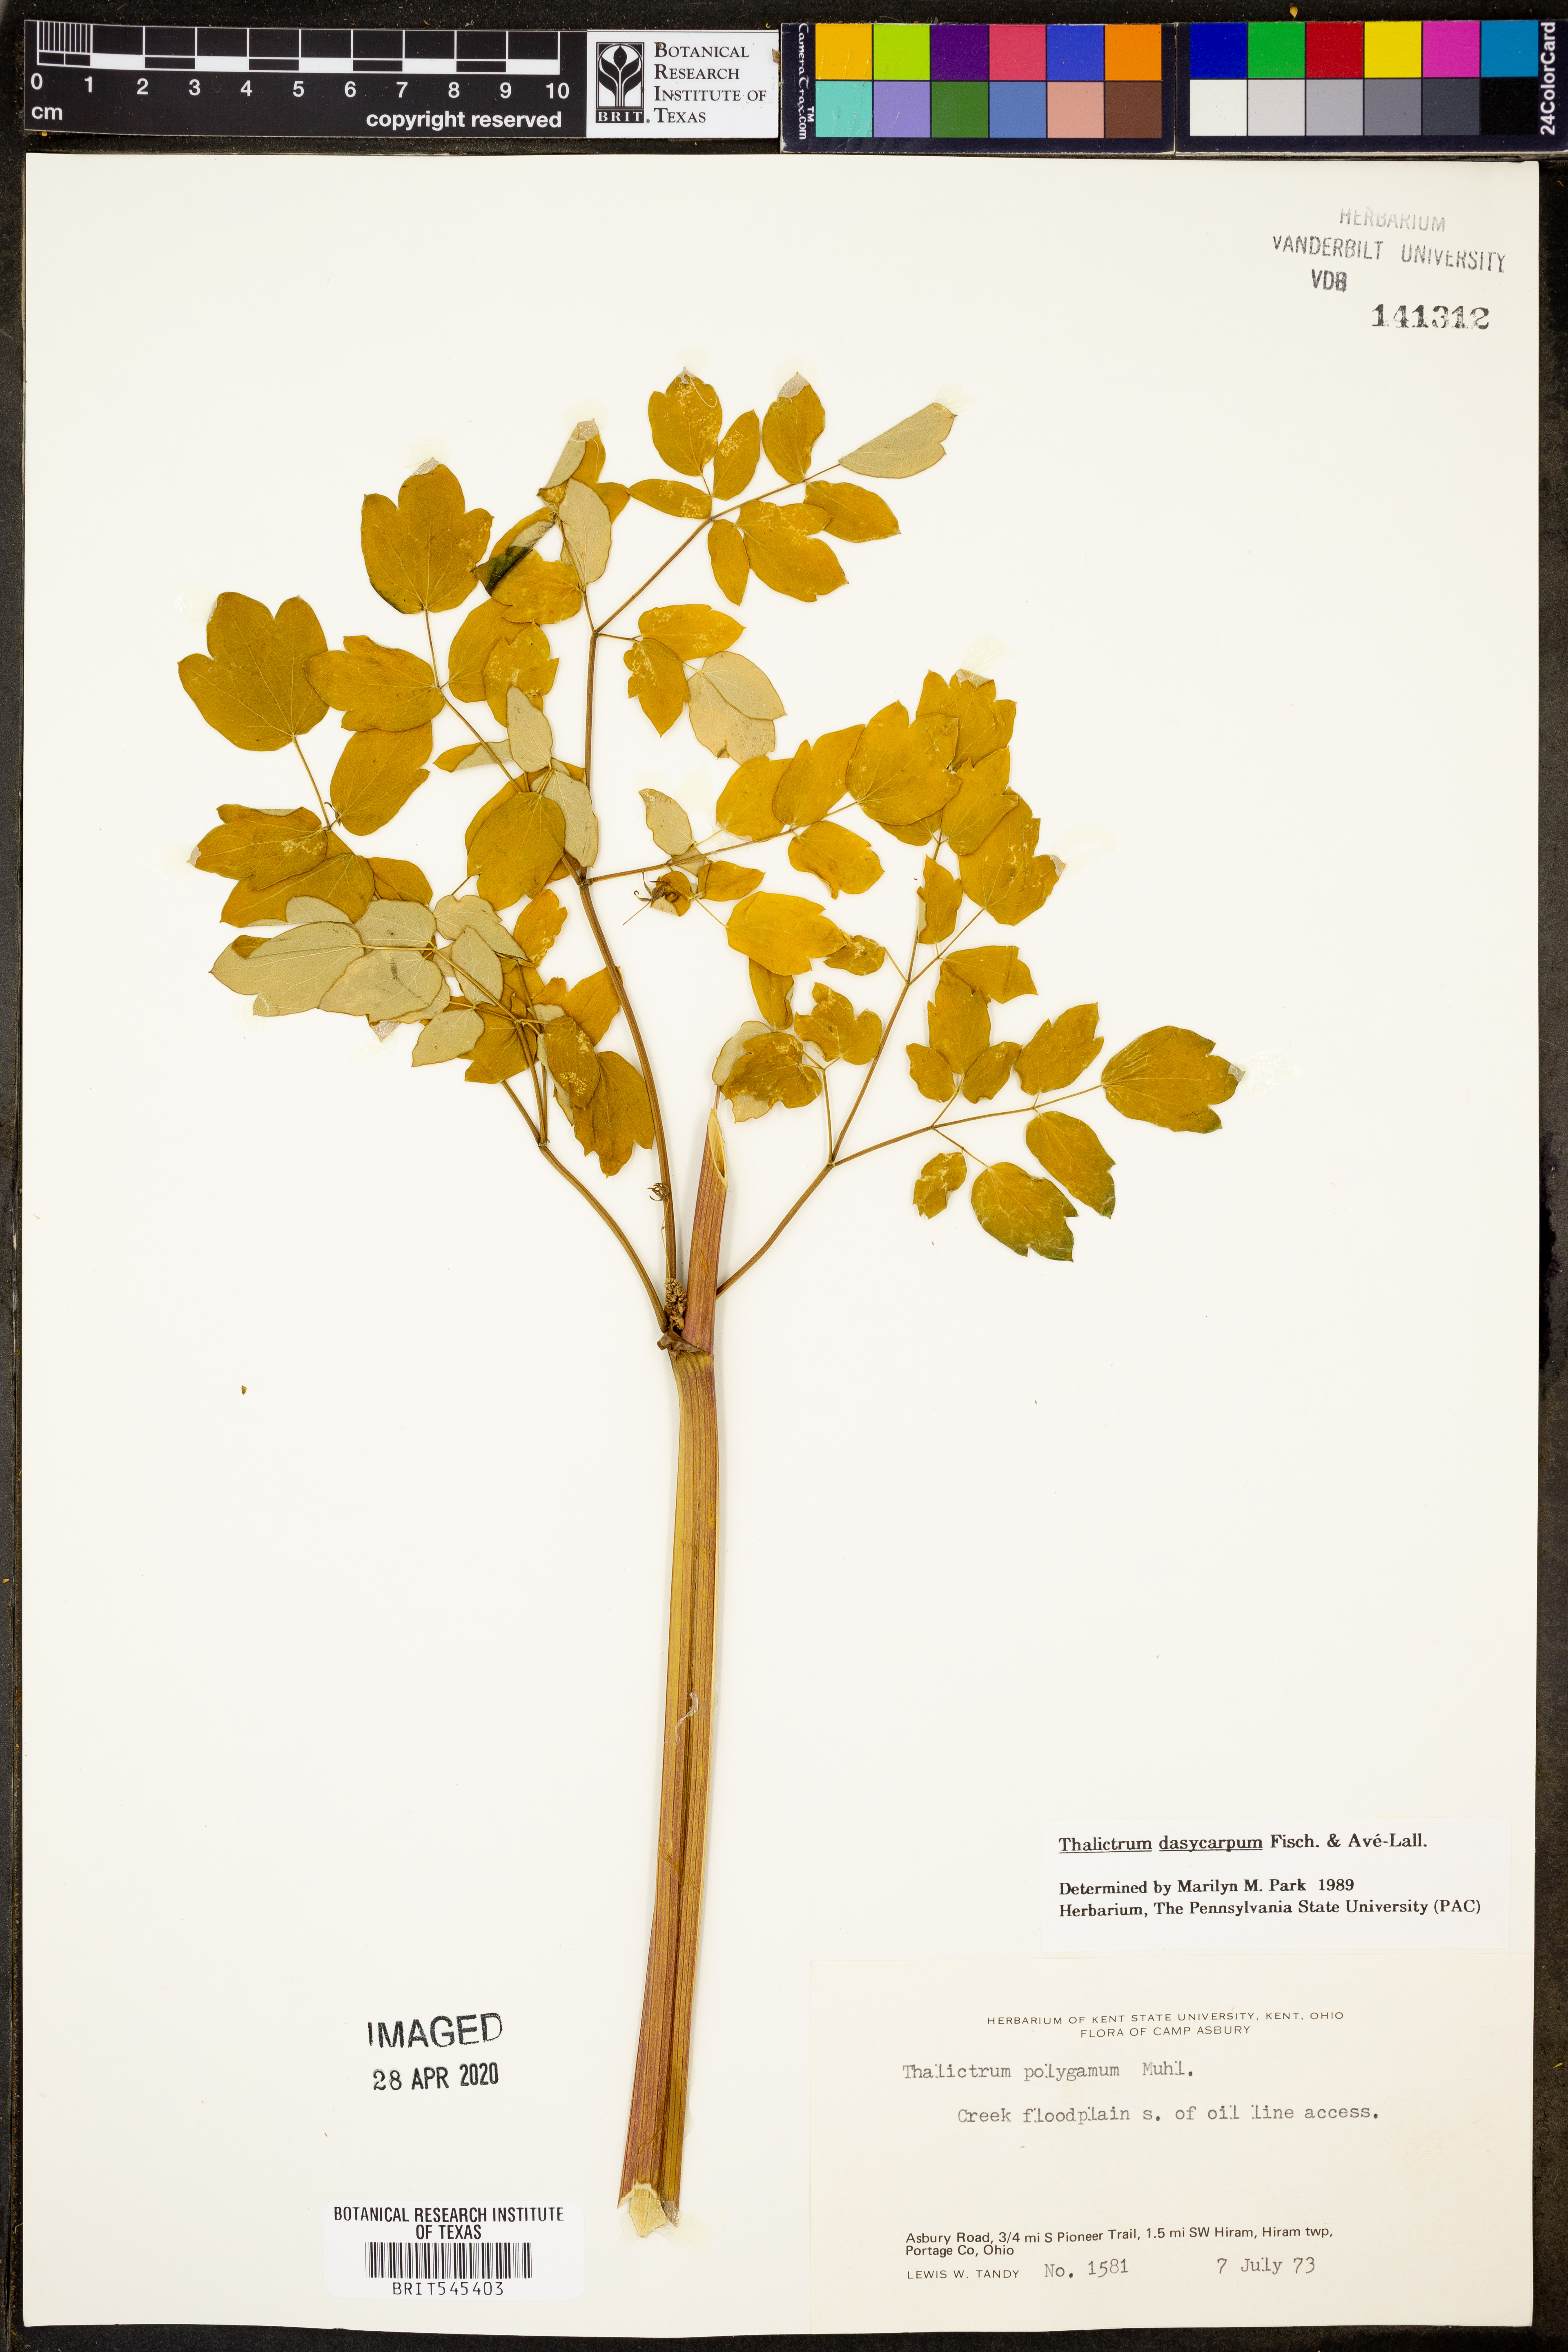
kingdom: Plantae
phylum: Tracheophyta
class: Magnoliopsida
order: Ranunculales
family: Ranunculaceae
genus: Thalictrum
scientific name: Thalictrum dasycarpum
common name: Purple meadow-rue
